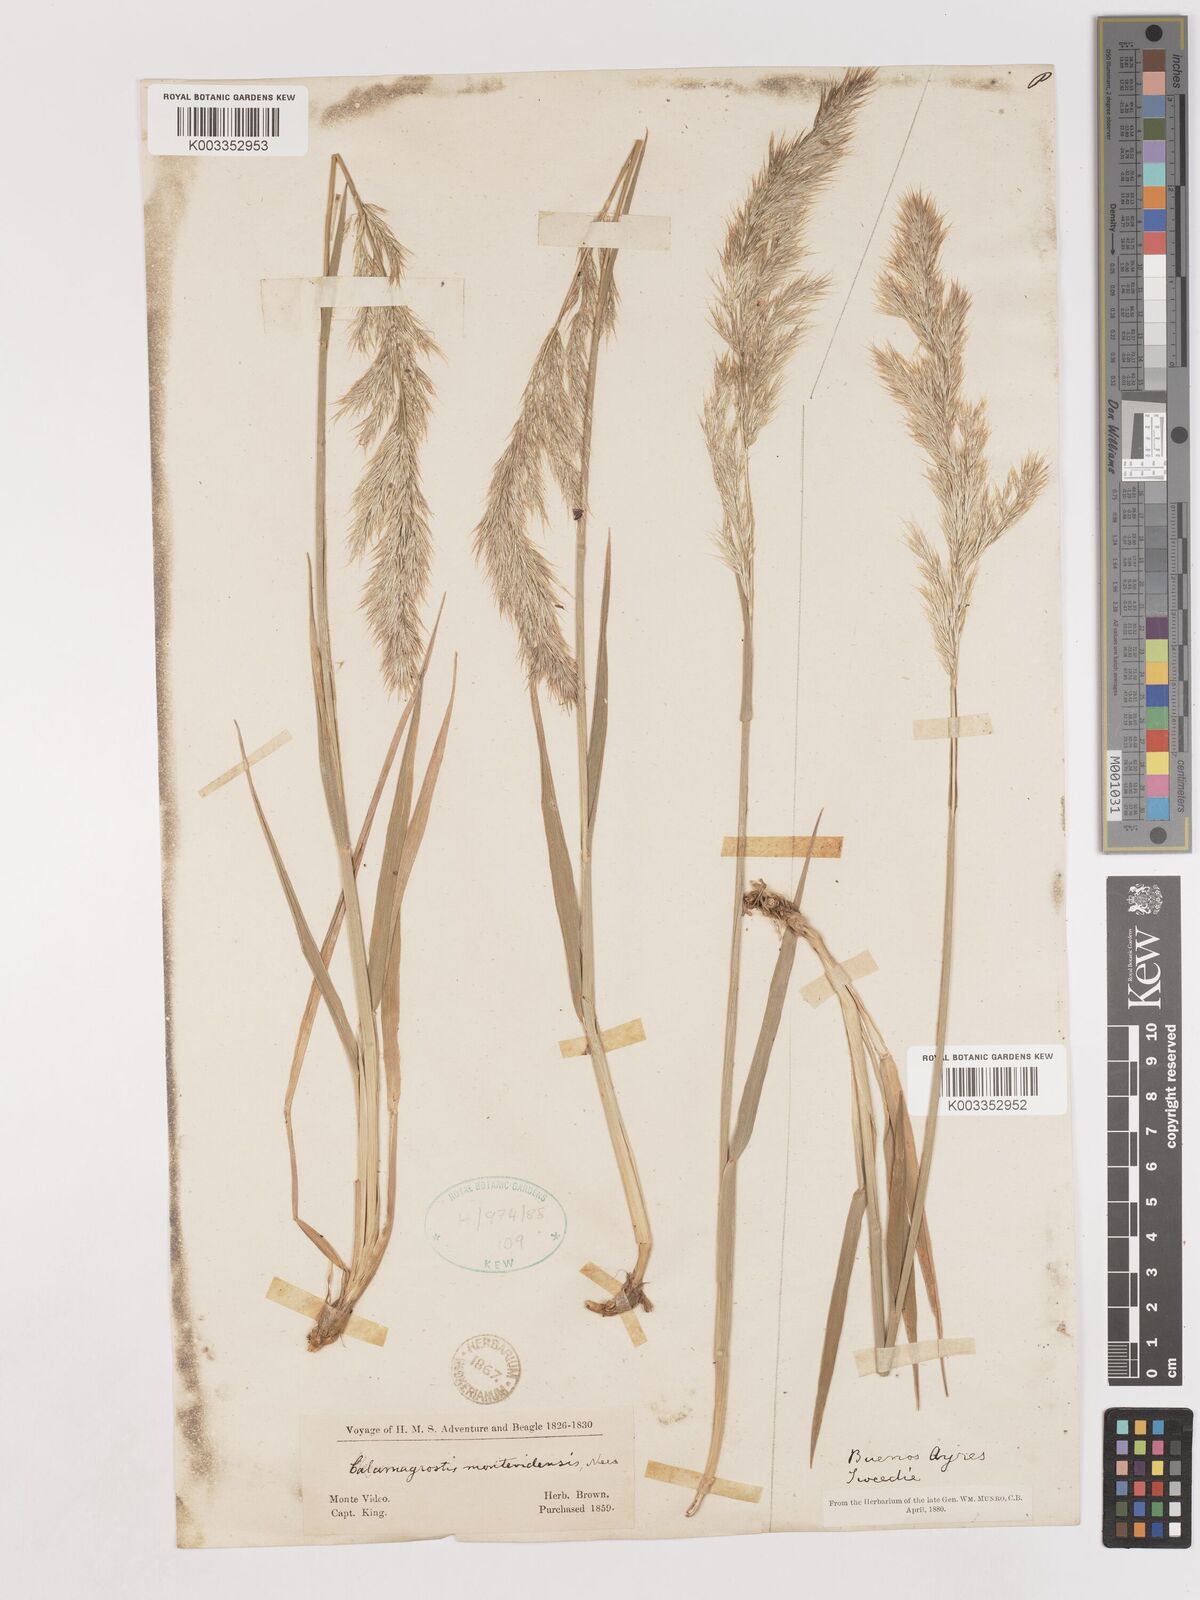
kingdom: Plantae
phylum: Tracheophyta
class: Liliopsida
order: Poales
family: Poaceae
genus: Cinnagrostis
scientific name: Cinnagrostis viridiflavescens
